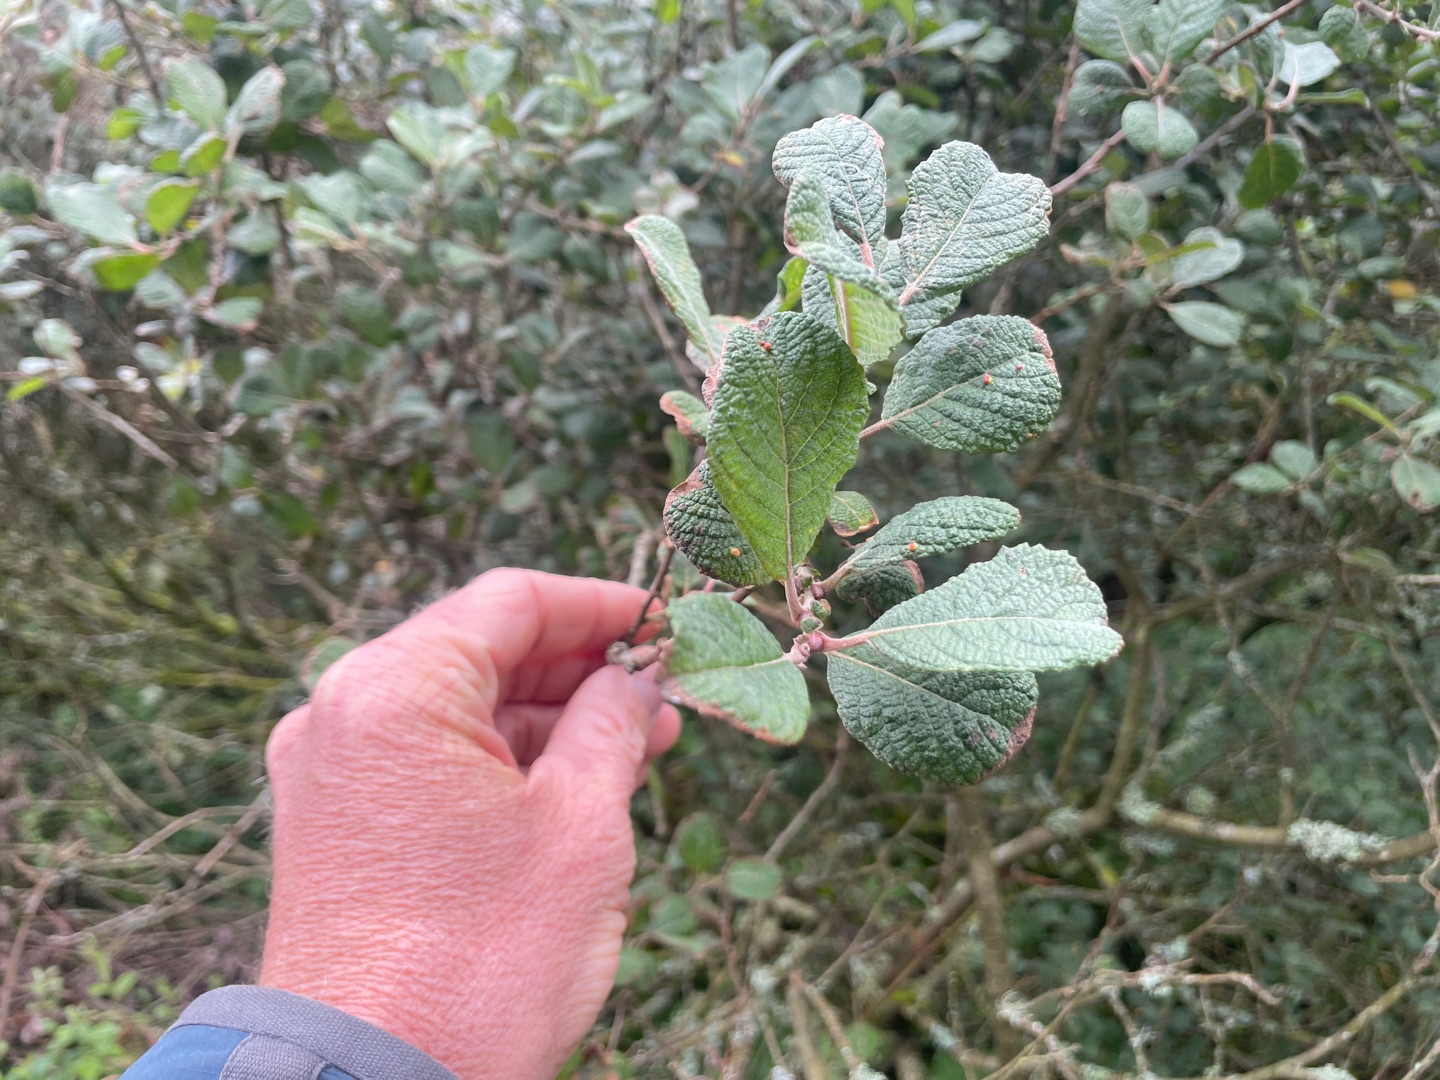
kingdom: Plantae
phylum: Tracheophyta
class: Magnoliopsida
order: Malpighiales
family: Salicaceae
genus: Salix
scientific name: Salix aurita
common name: Øret pil
